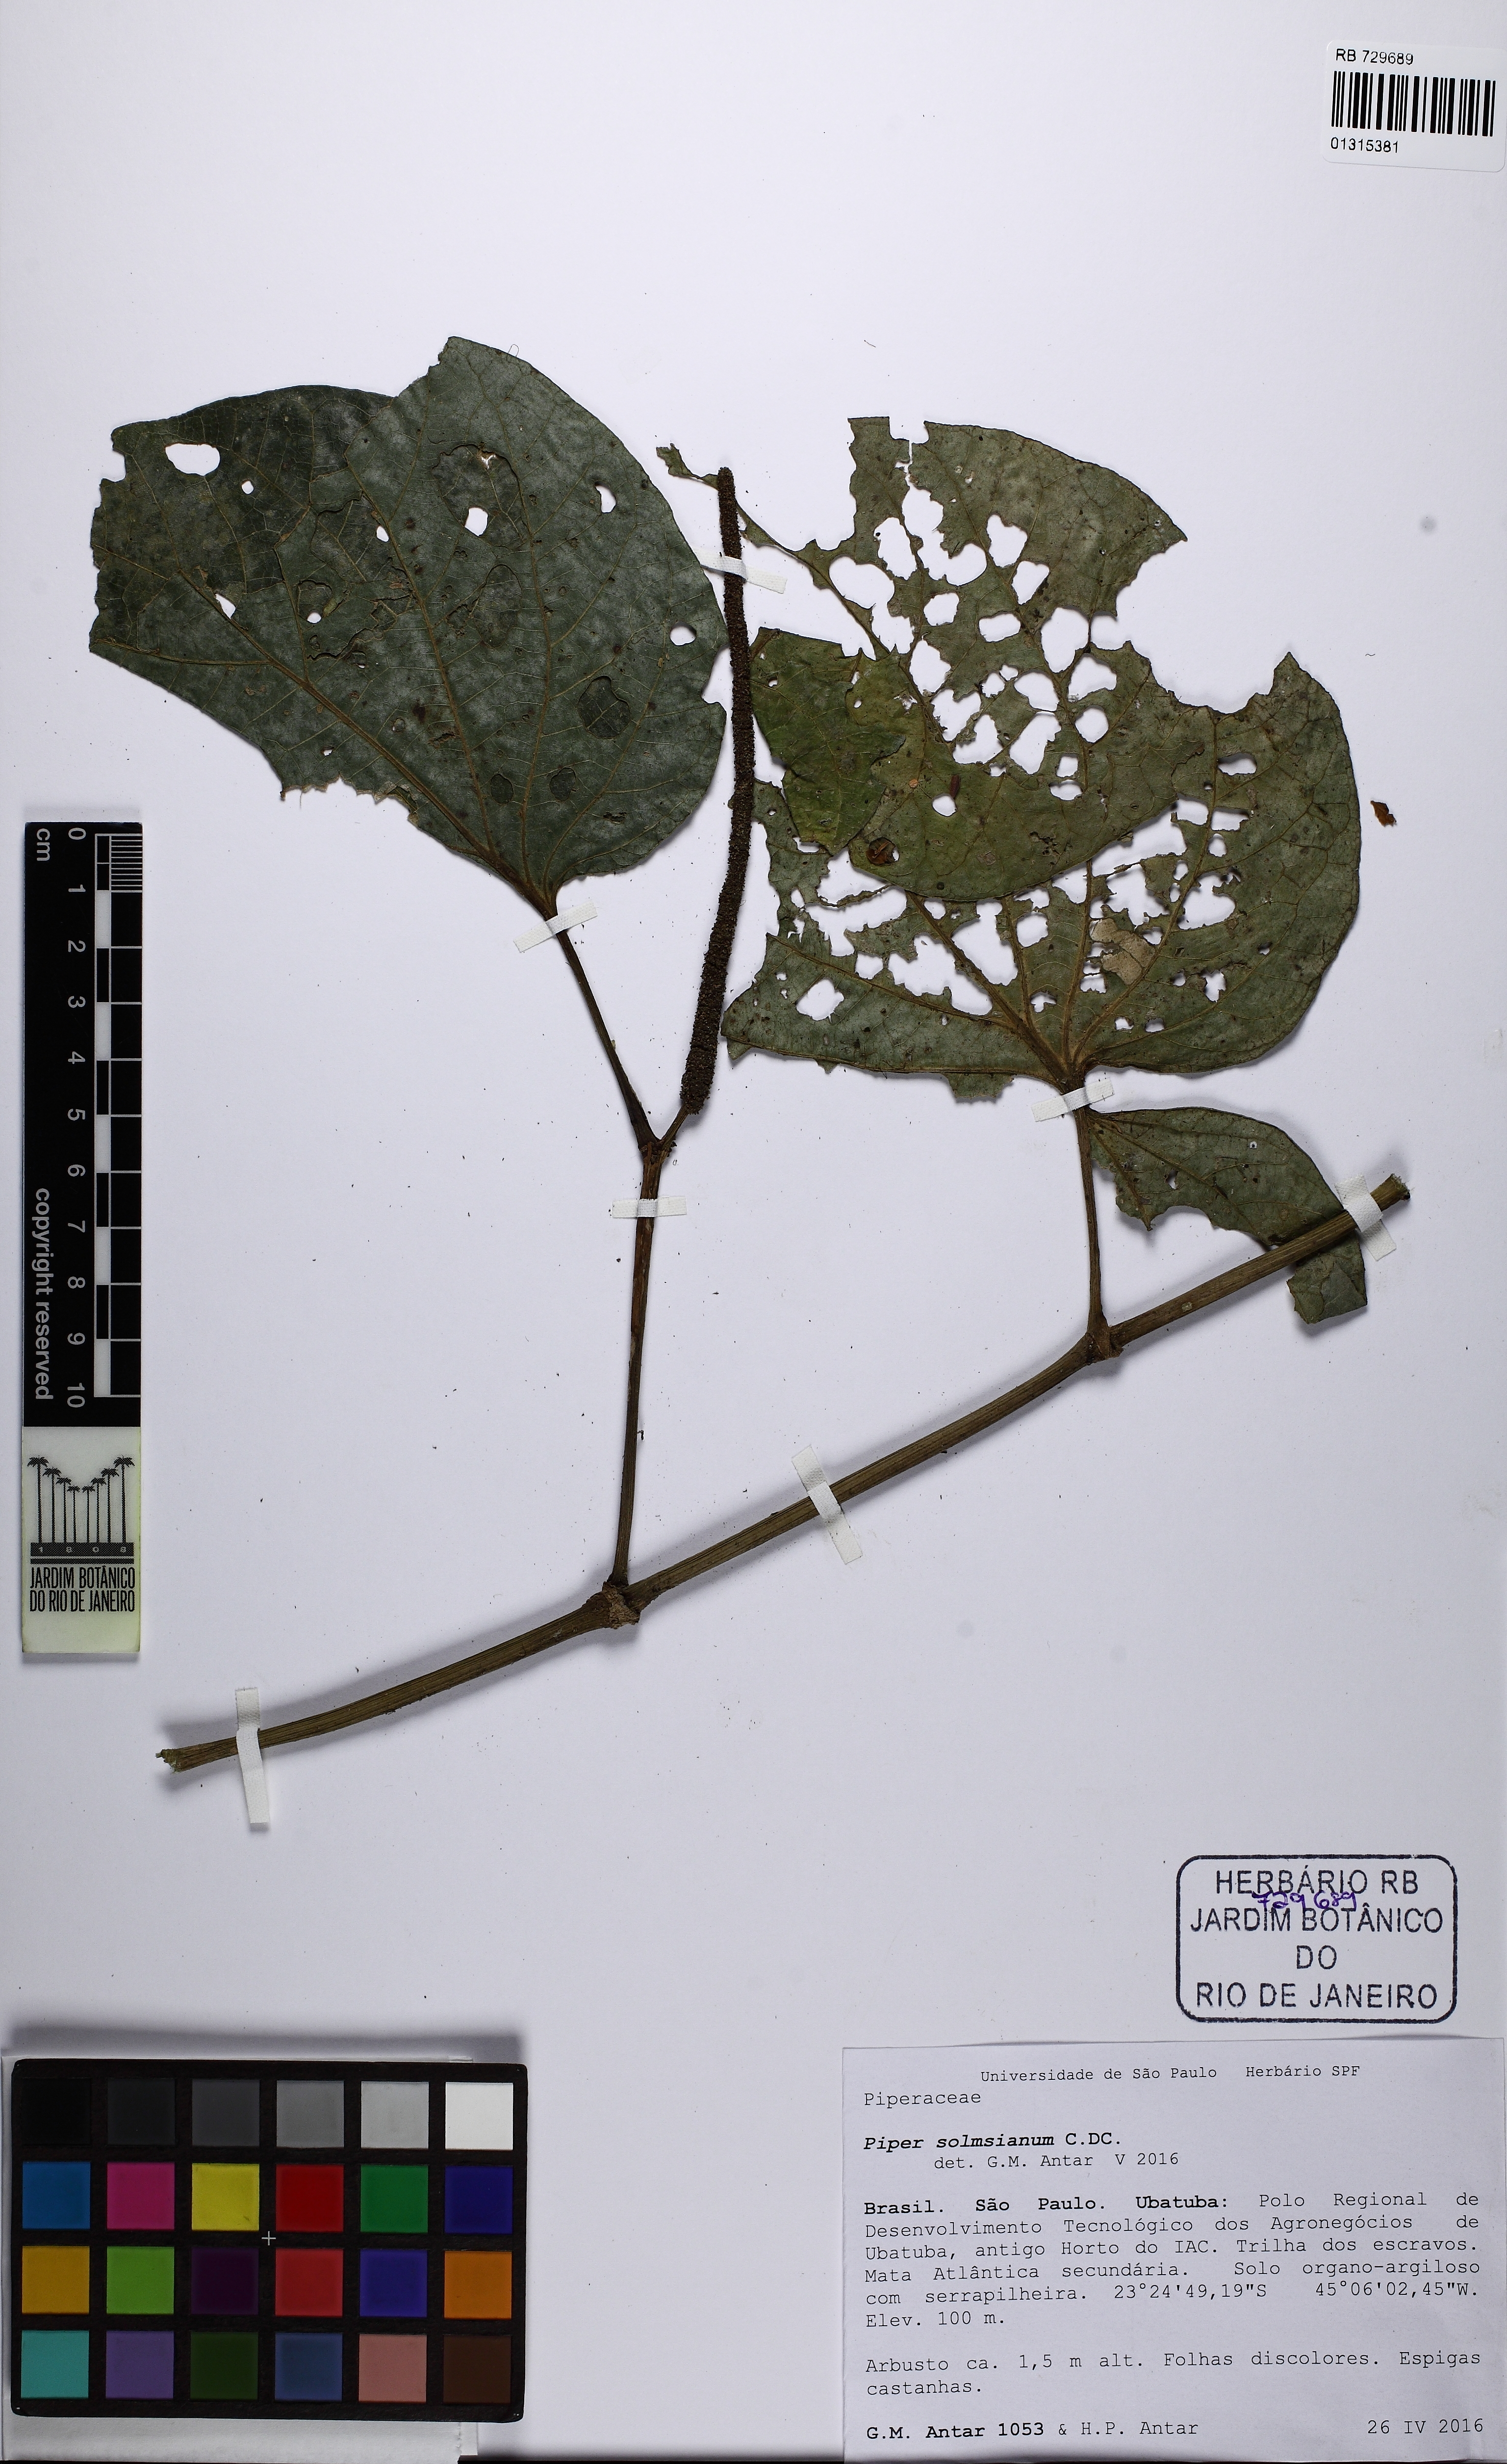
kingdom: Plantae
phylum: Tracheophyta
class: Magnoliopsida
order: Piperales
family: Piperaceae
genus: Piper
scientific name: Piper solmsianum
